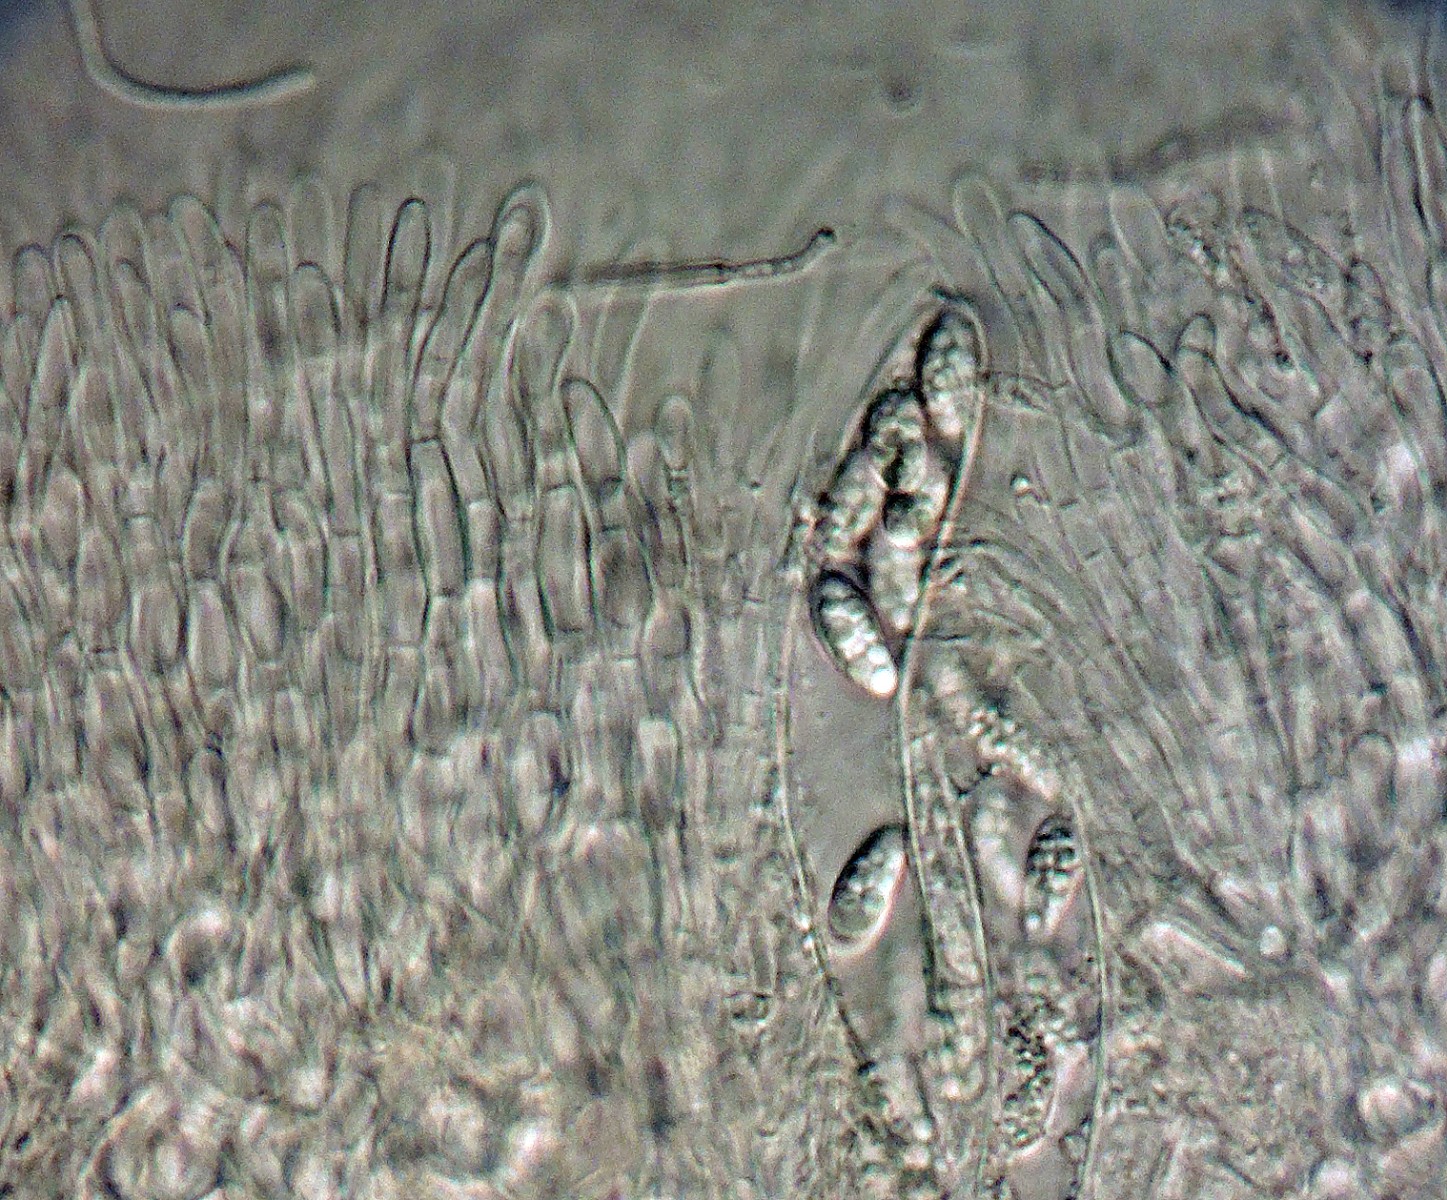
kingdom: Fungi
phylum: Ascomycota
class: Leotiomycetes
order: Leotiales
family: Mniaeciaceae
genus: Mniaecia
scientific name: Mniaecia gloeocapsae
